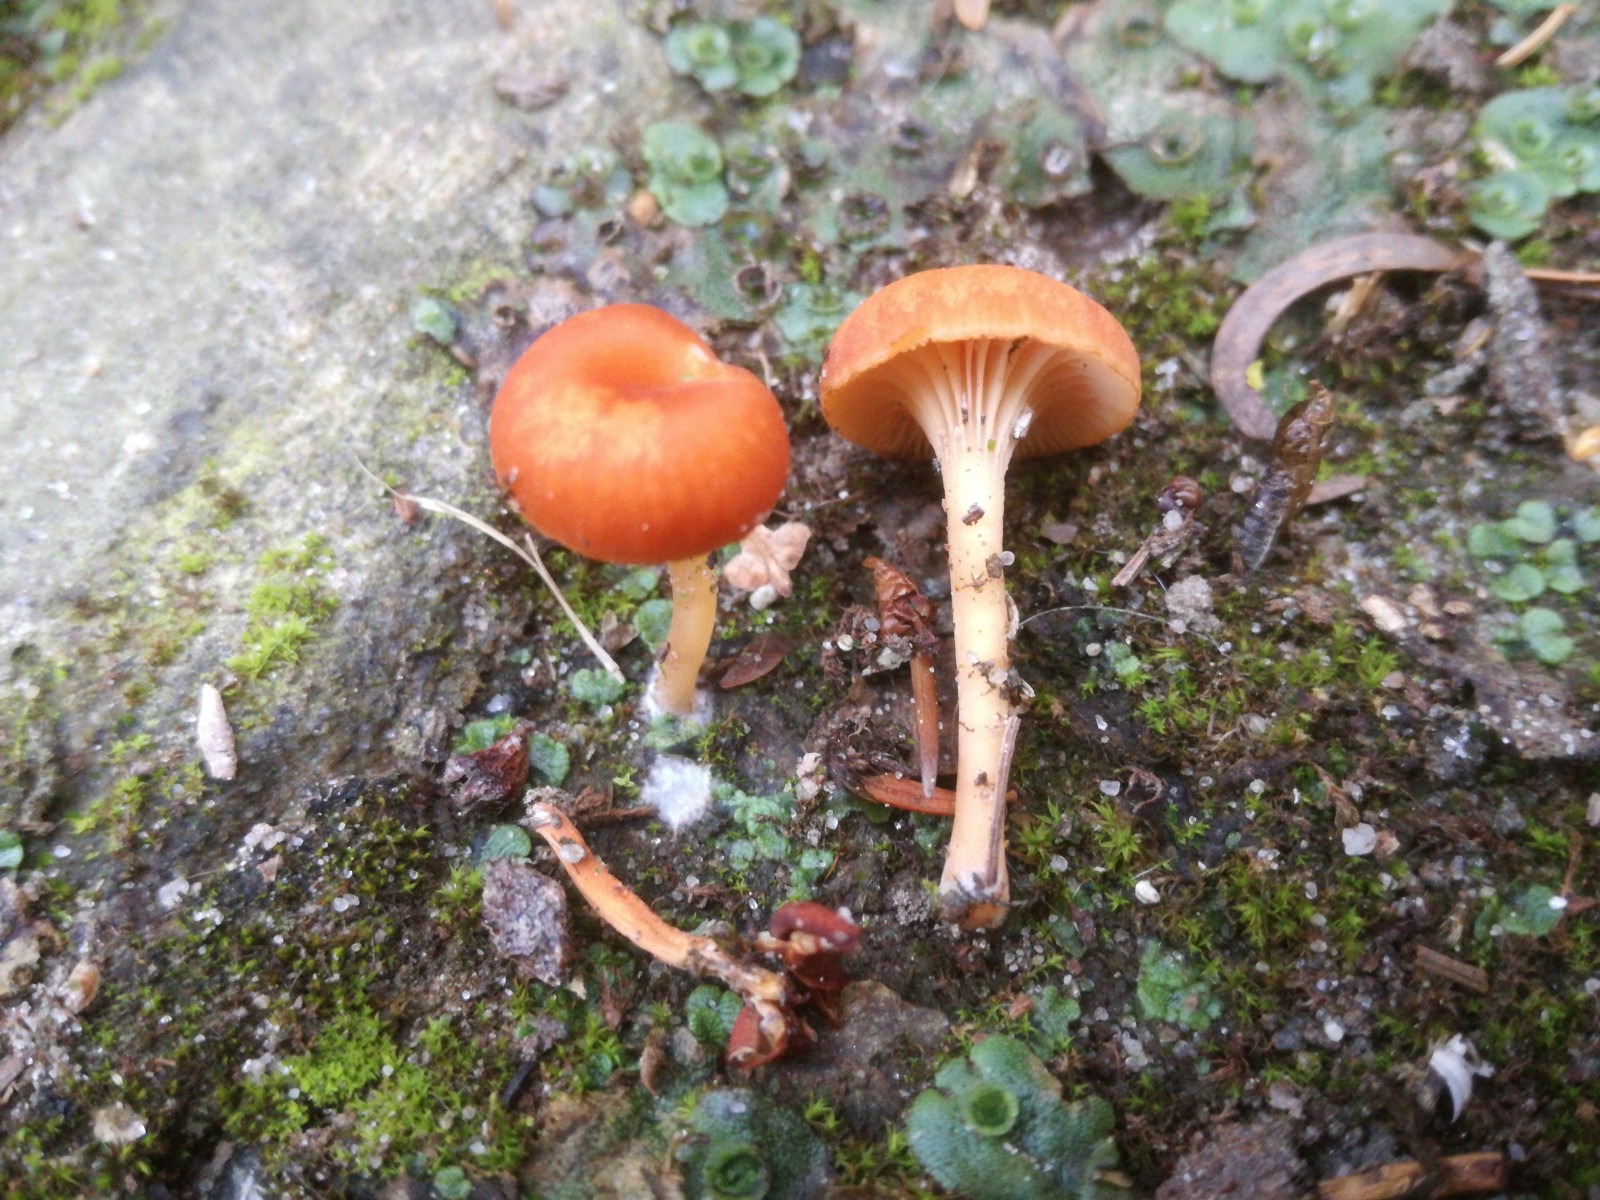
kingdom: Fungi
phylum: Basidiomycota
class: Agaricomycetes
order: Hymenochaetales
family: Rickenellaceae
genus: Loreleia
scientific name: Loreleia postii
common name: brandplet-mosnavlehat
